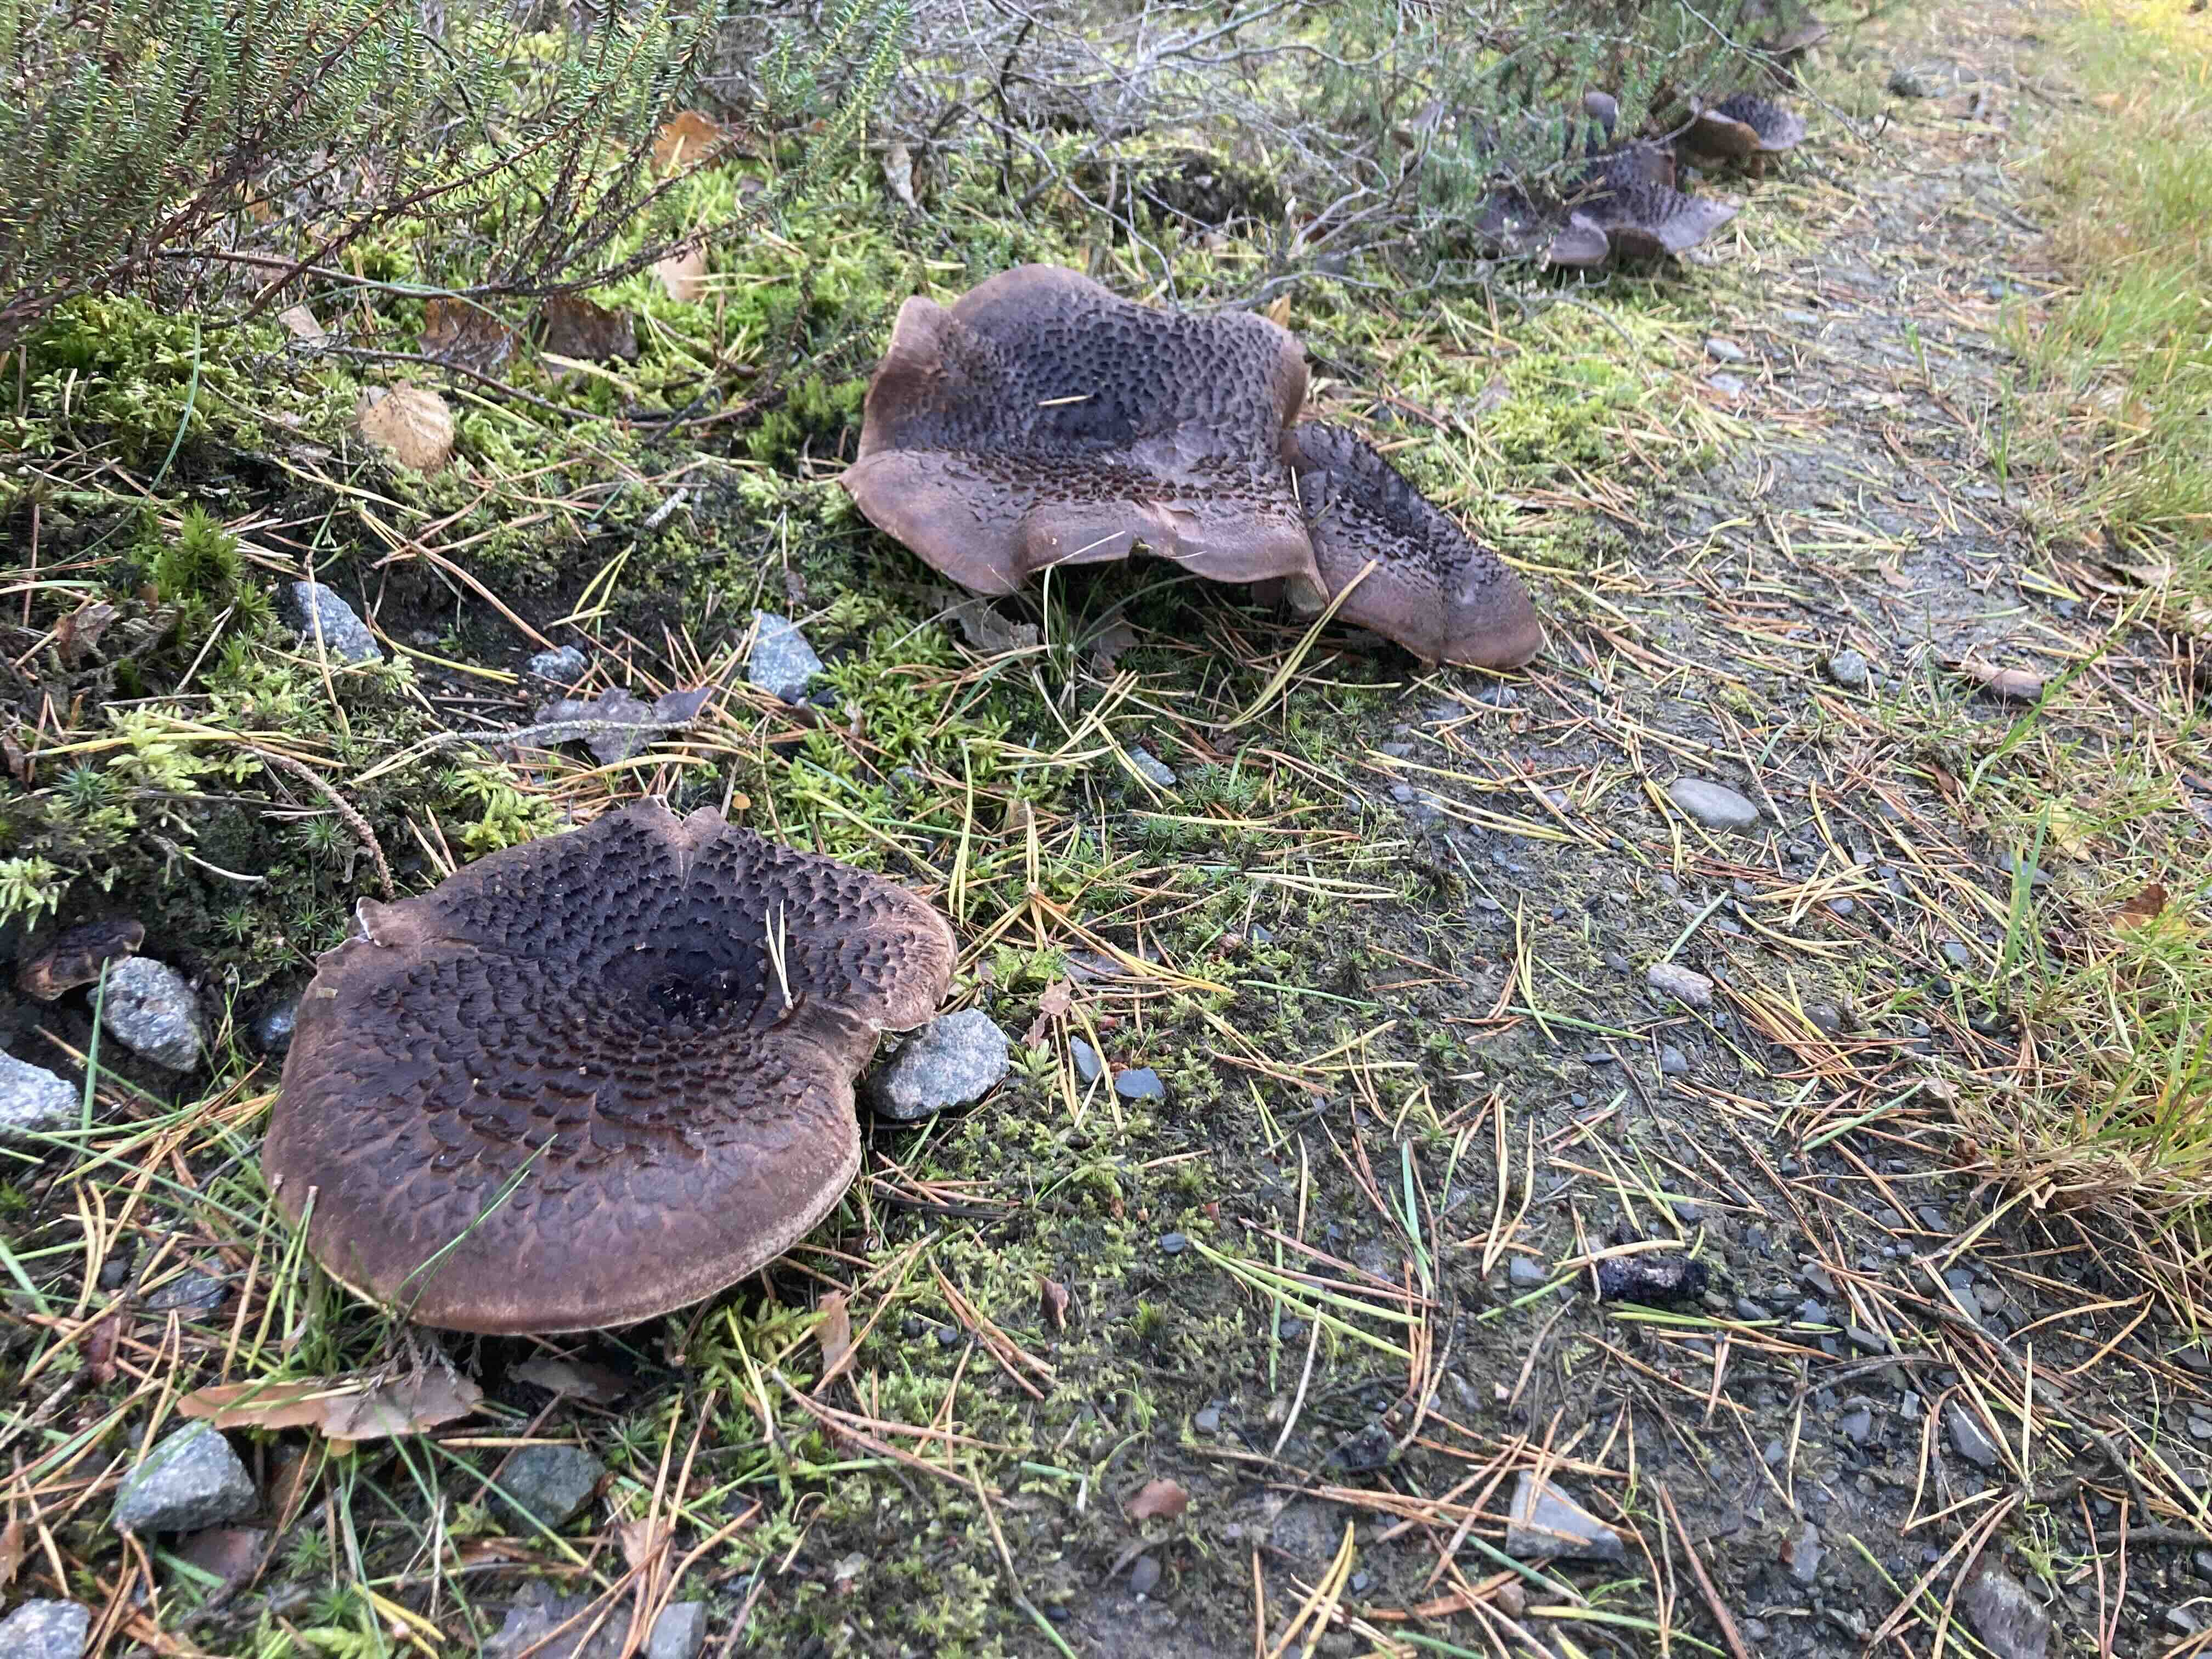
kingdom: Fungi
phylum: Basidiomycota
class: Agaricomycetes
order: Thelephorales
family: Bankeraceae
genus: Sarcodon
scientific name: Sarcodon squamosus
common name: småskællet kødpigsvamp
